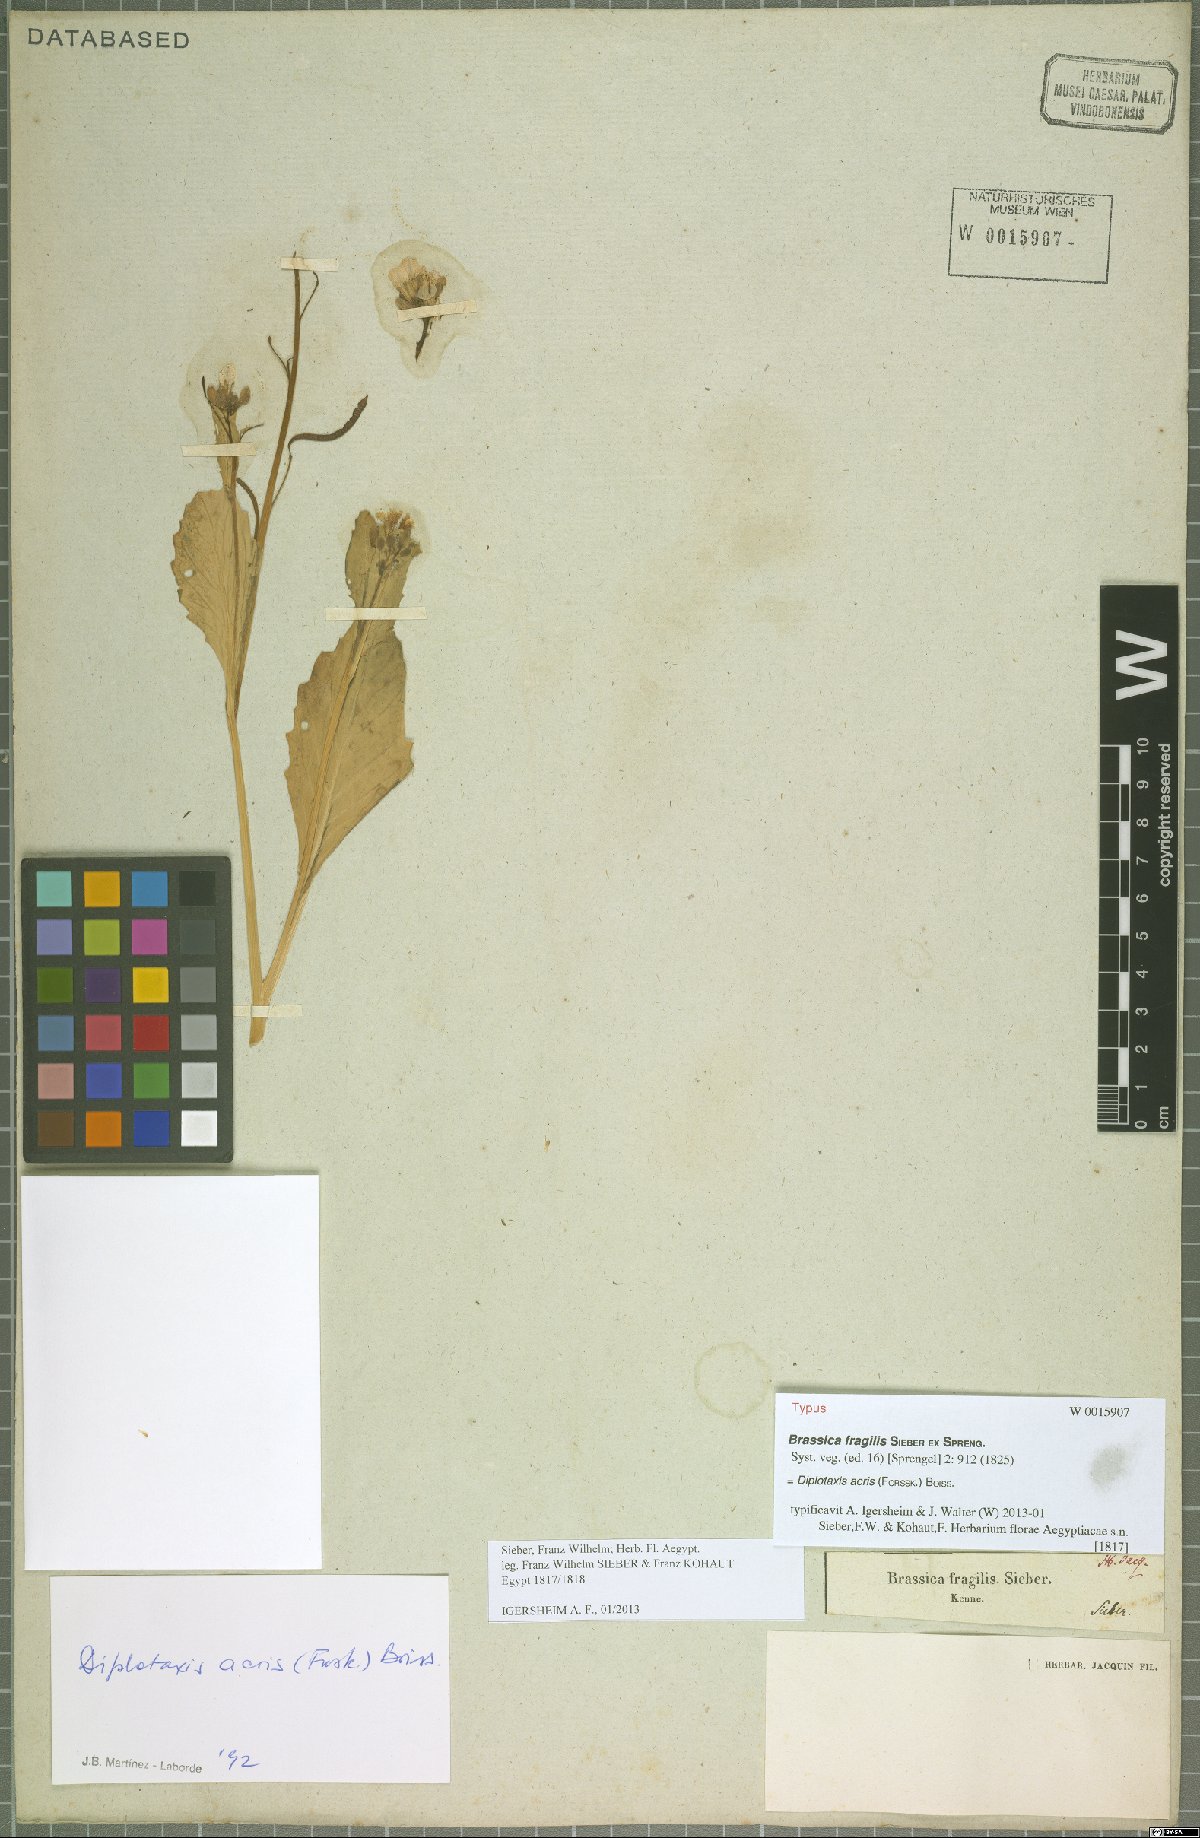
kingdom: Plantae
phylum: Tracheophyta
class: Magnoliopsida
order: Brassicales
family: Brassicaceae
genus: Diplotaxis
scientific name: Diplotaxis acris
